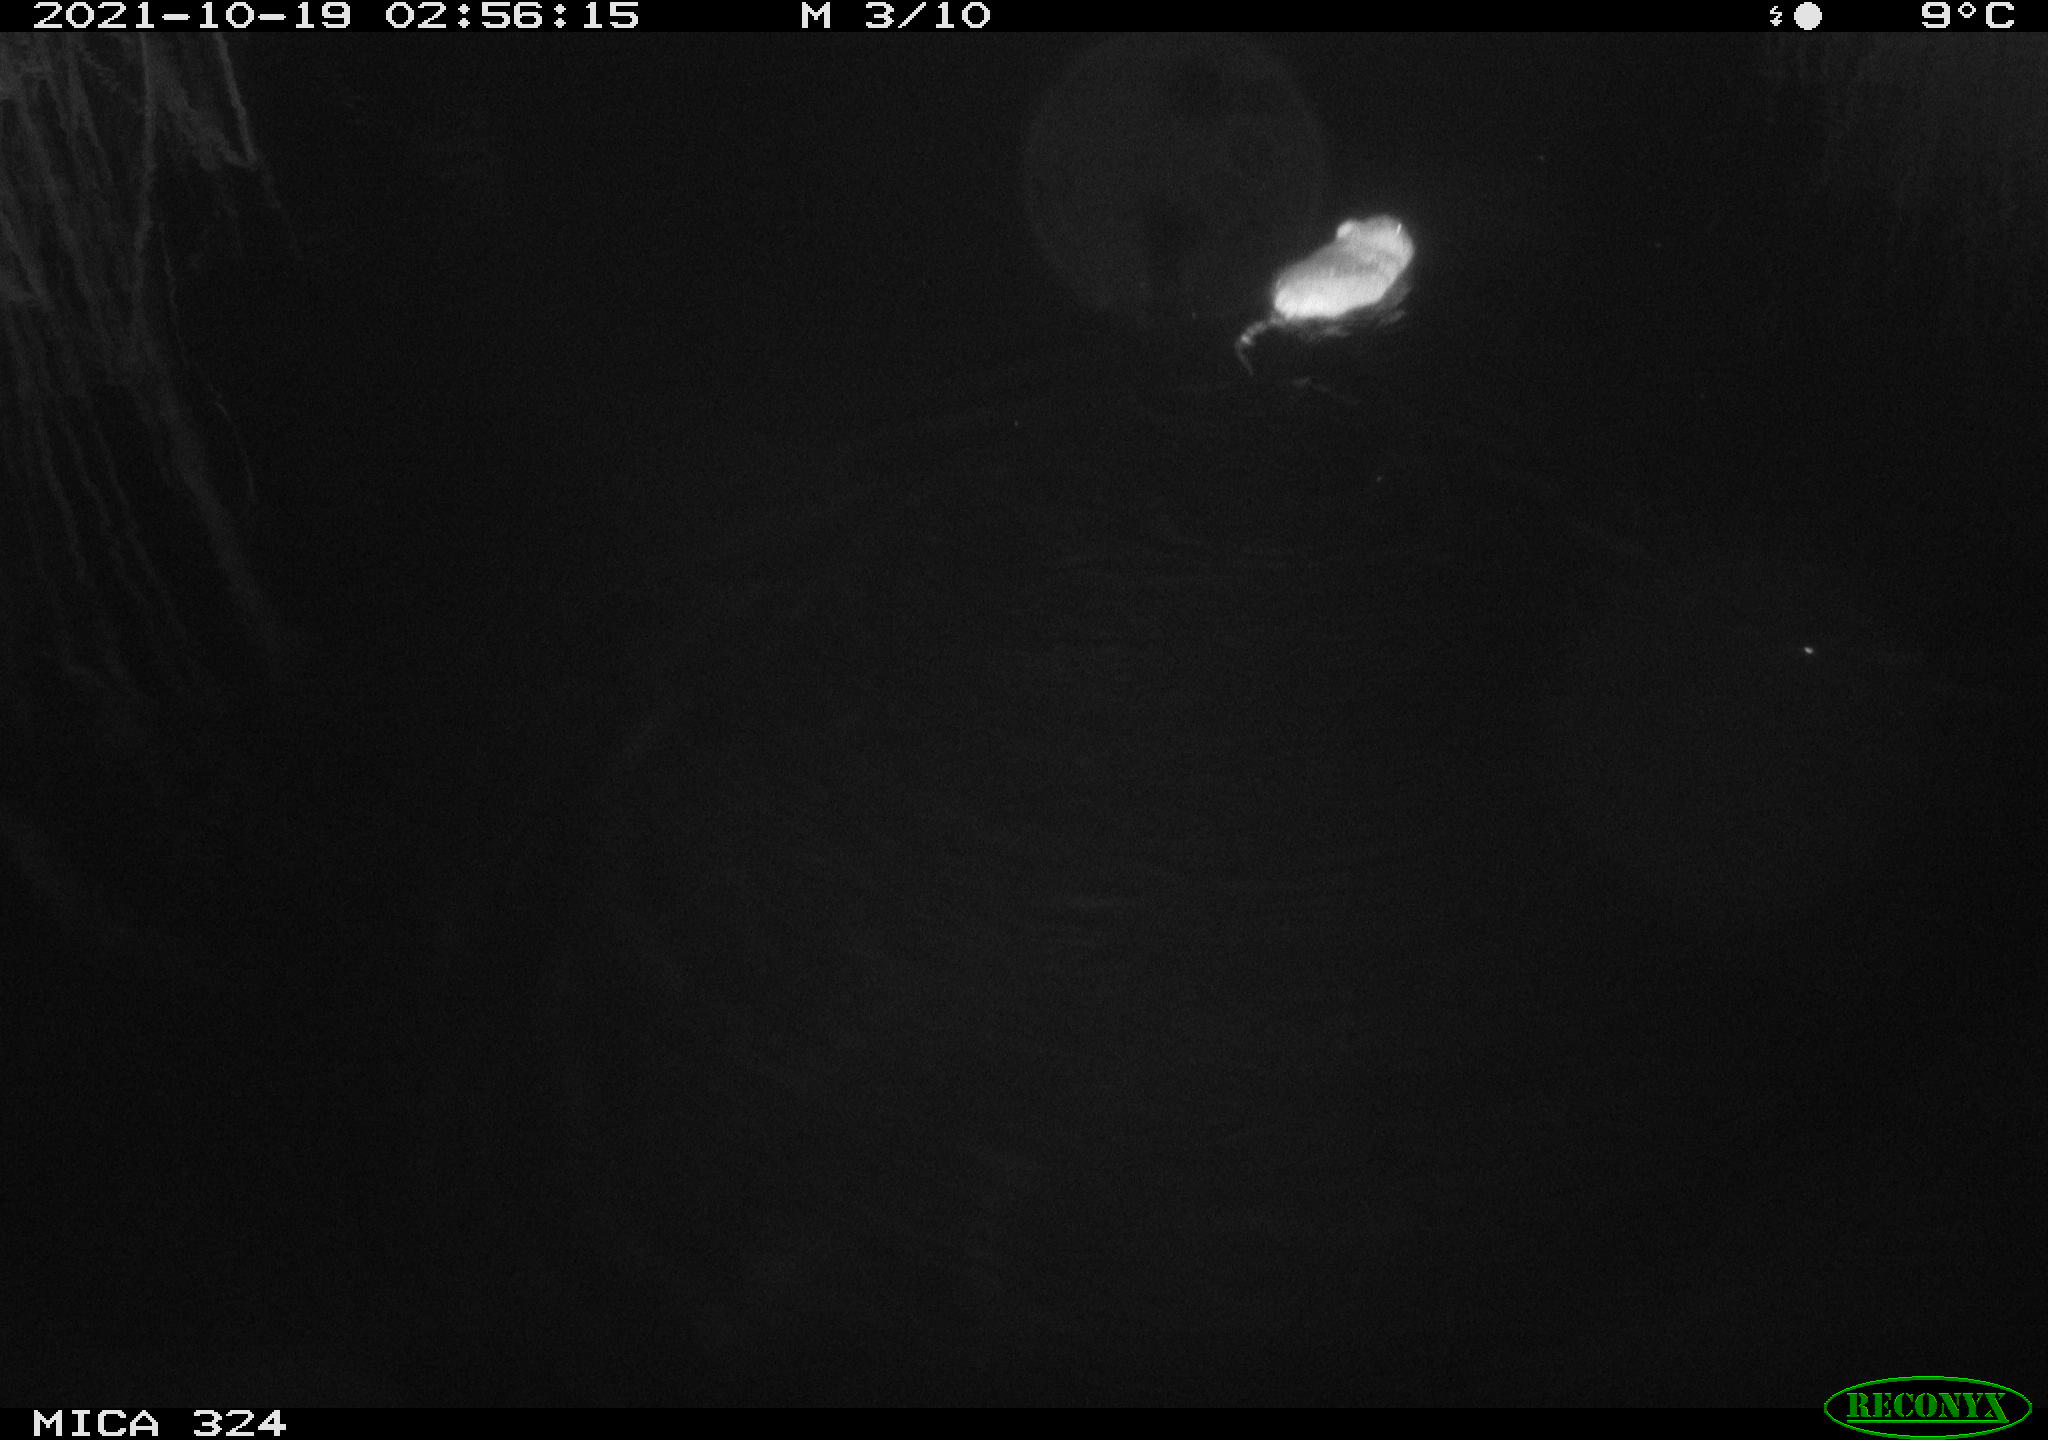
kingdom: Animalia
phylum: Chordata
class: Mammalia
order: Rodentia
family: Cricetidae
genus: Ondatra
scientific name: Ondatra zibethicus
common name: Muskrat
